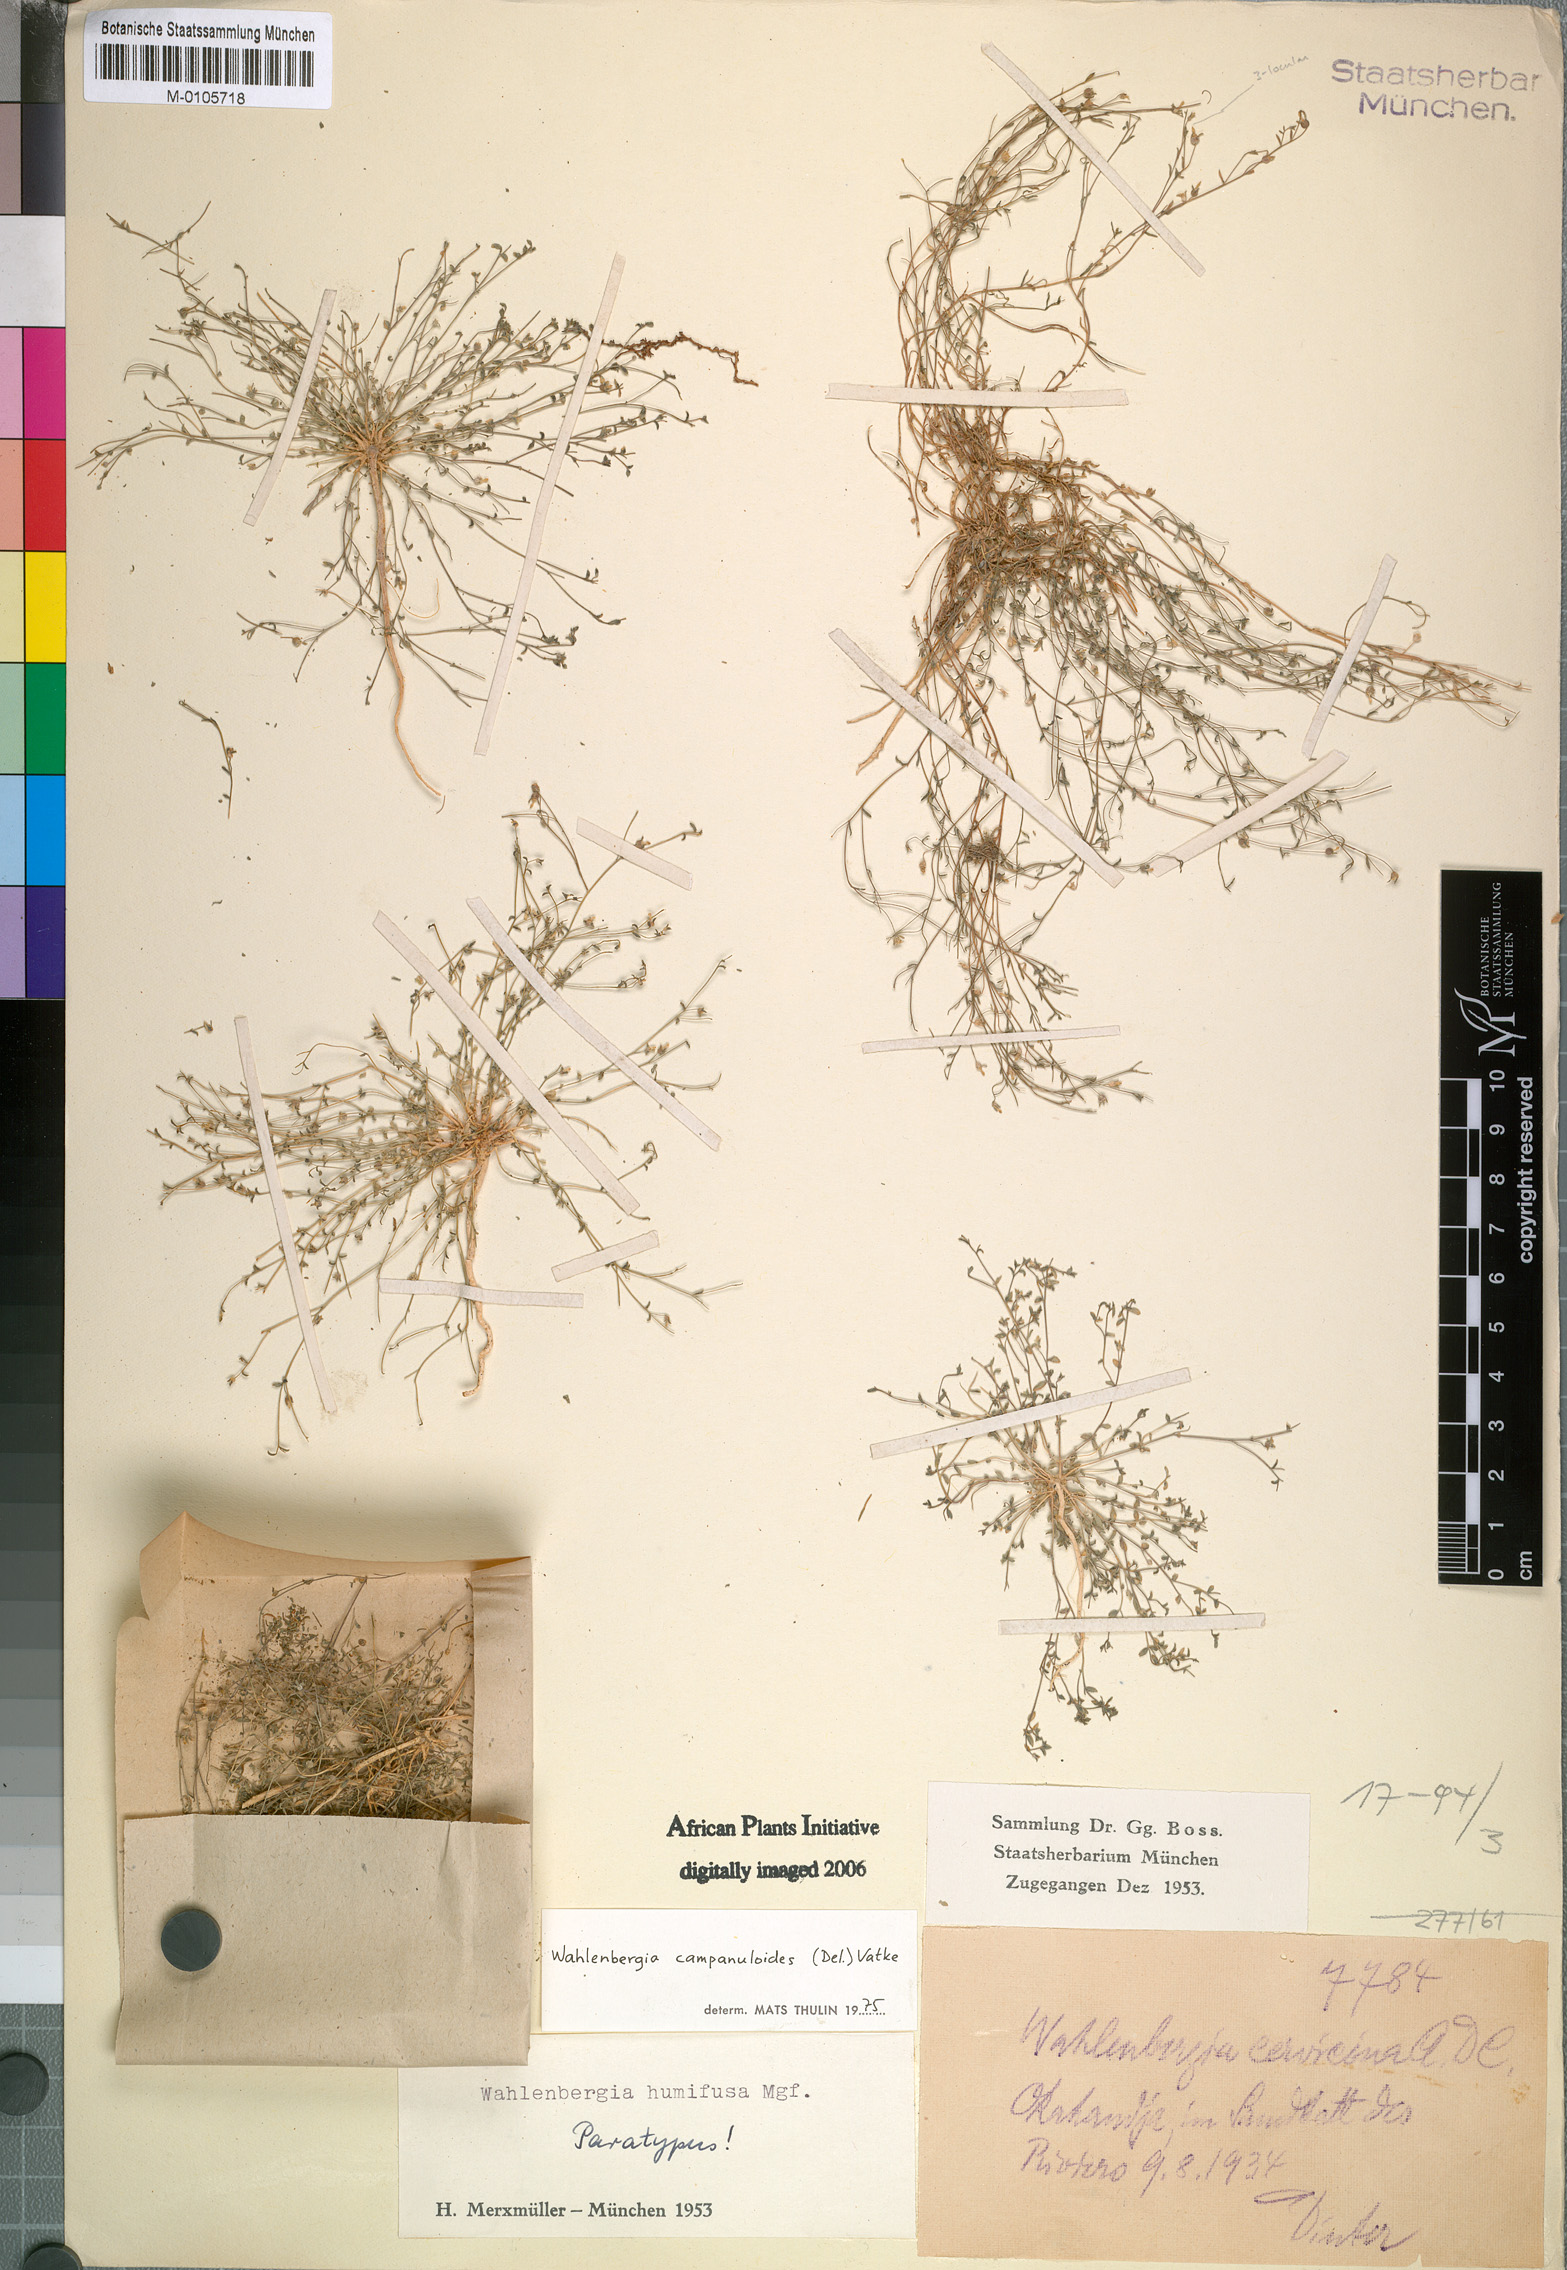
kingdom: Plantae
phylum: Tracheophyta
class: Magnoliopsida
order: Asterales
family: Campanulaceae
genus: Wahlenbergia
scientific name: Wahlenbergia campanuloides
